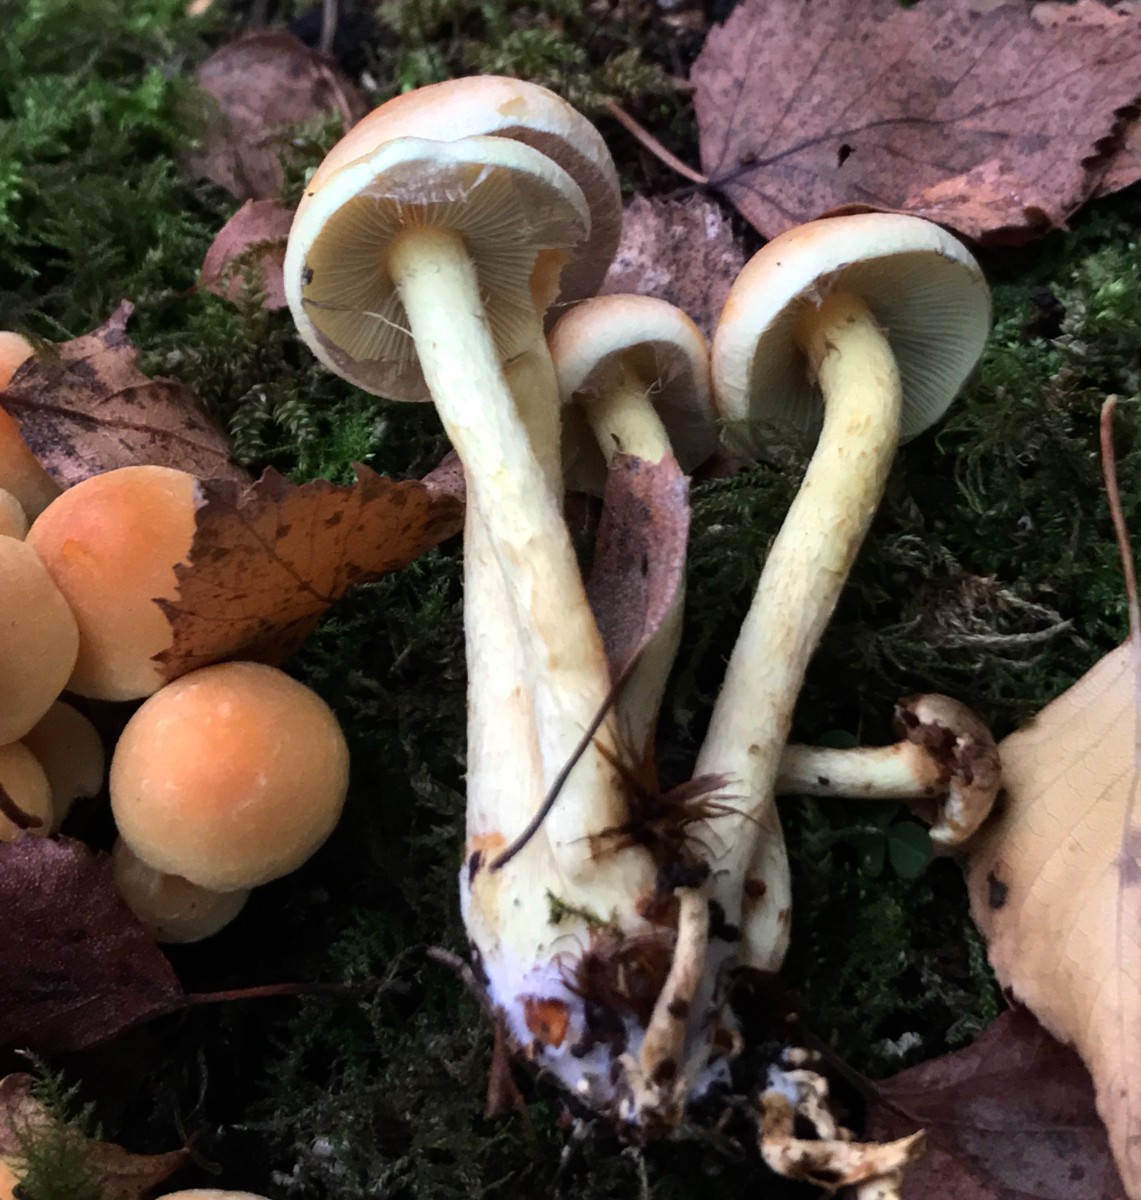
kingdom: Fungi
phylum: Basidiomycota
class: Agaricomycetes
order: Agaricales
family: Strophariaceae
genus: Hypholoma
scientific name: Hypholoma fasciculare
